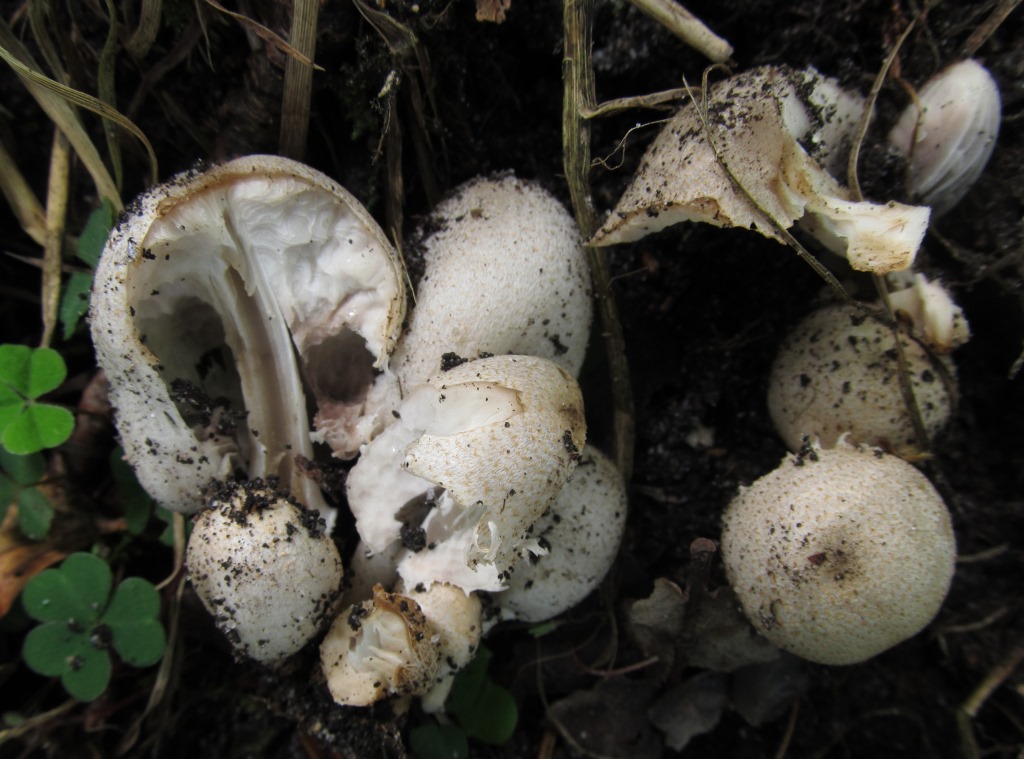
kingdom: Fungi
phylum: Basidiomycota
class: Agaricomycetes
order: Agaricales
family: Psathyrellaceae
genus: Coprinopsis
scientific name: Coprinopsis romagnesiana
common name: brunskællet blækhat
